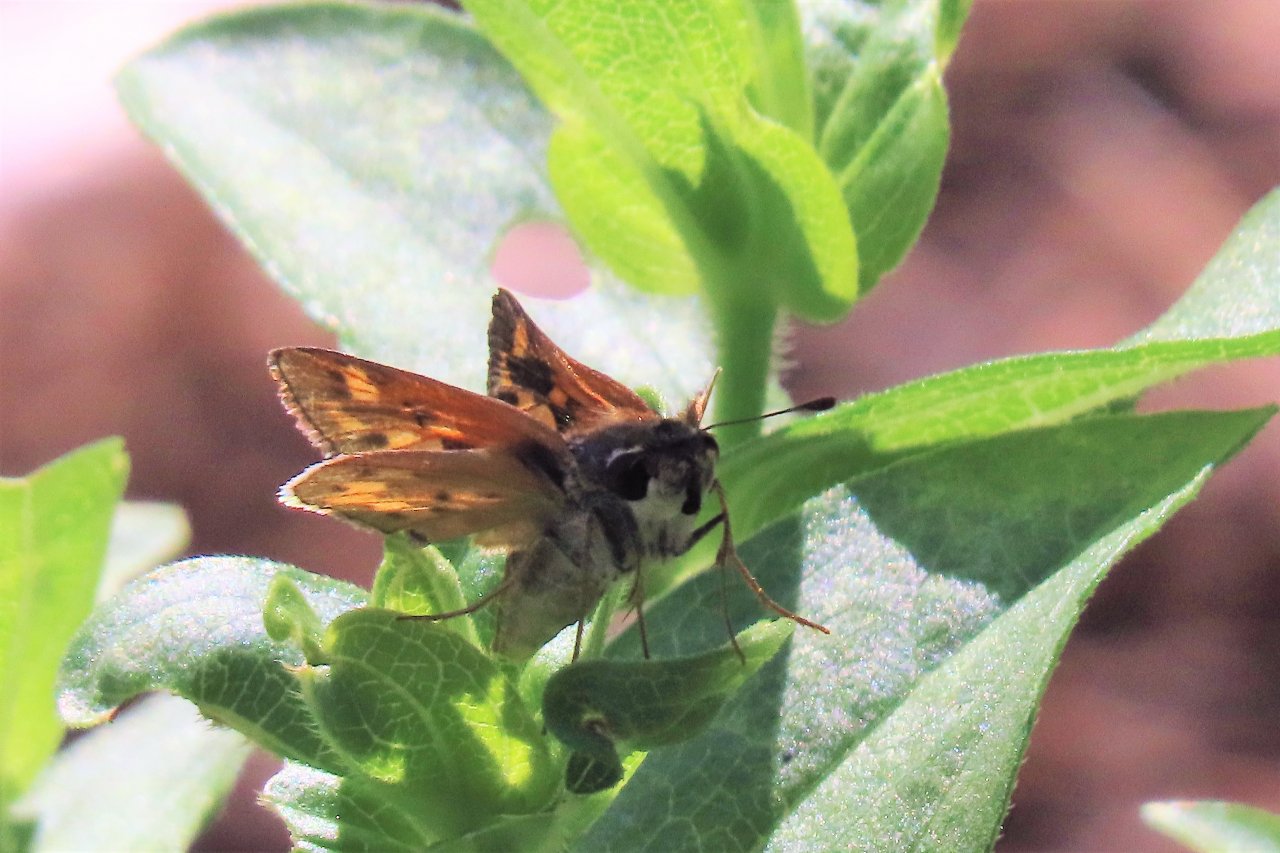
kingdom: Animalia
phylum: Arthropoda
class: Insecta
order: Lepidoptera
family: Hesperiidae
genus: Hylephila
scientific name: Hylephila phyleus
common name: Fiery Skipper
